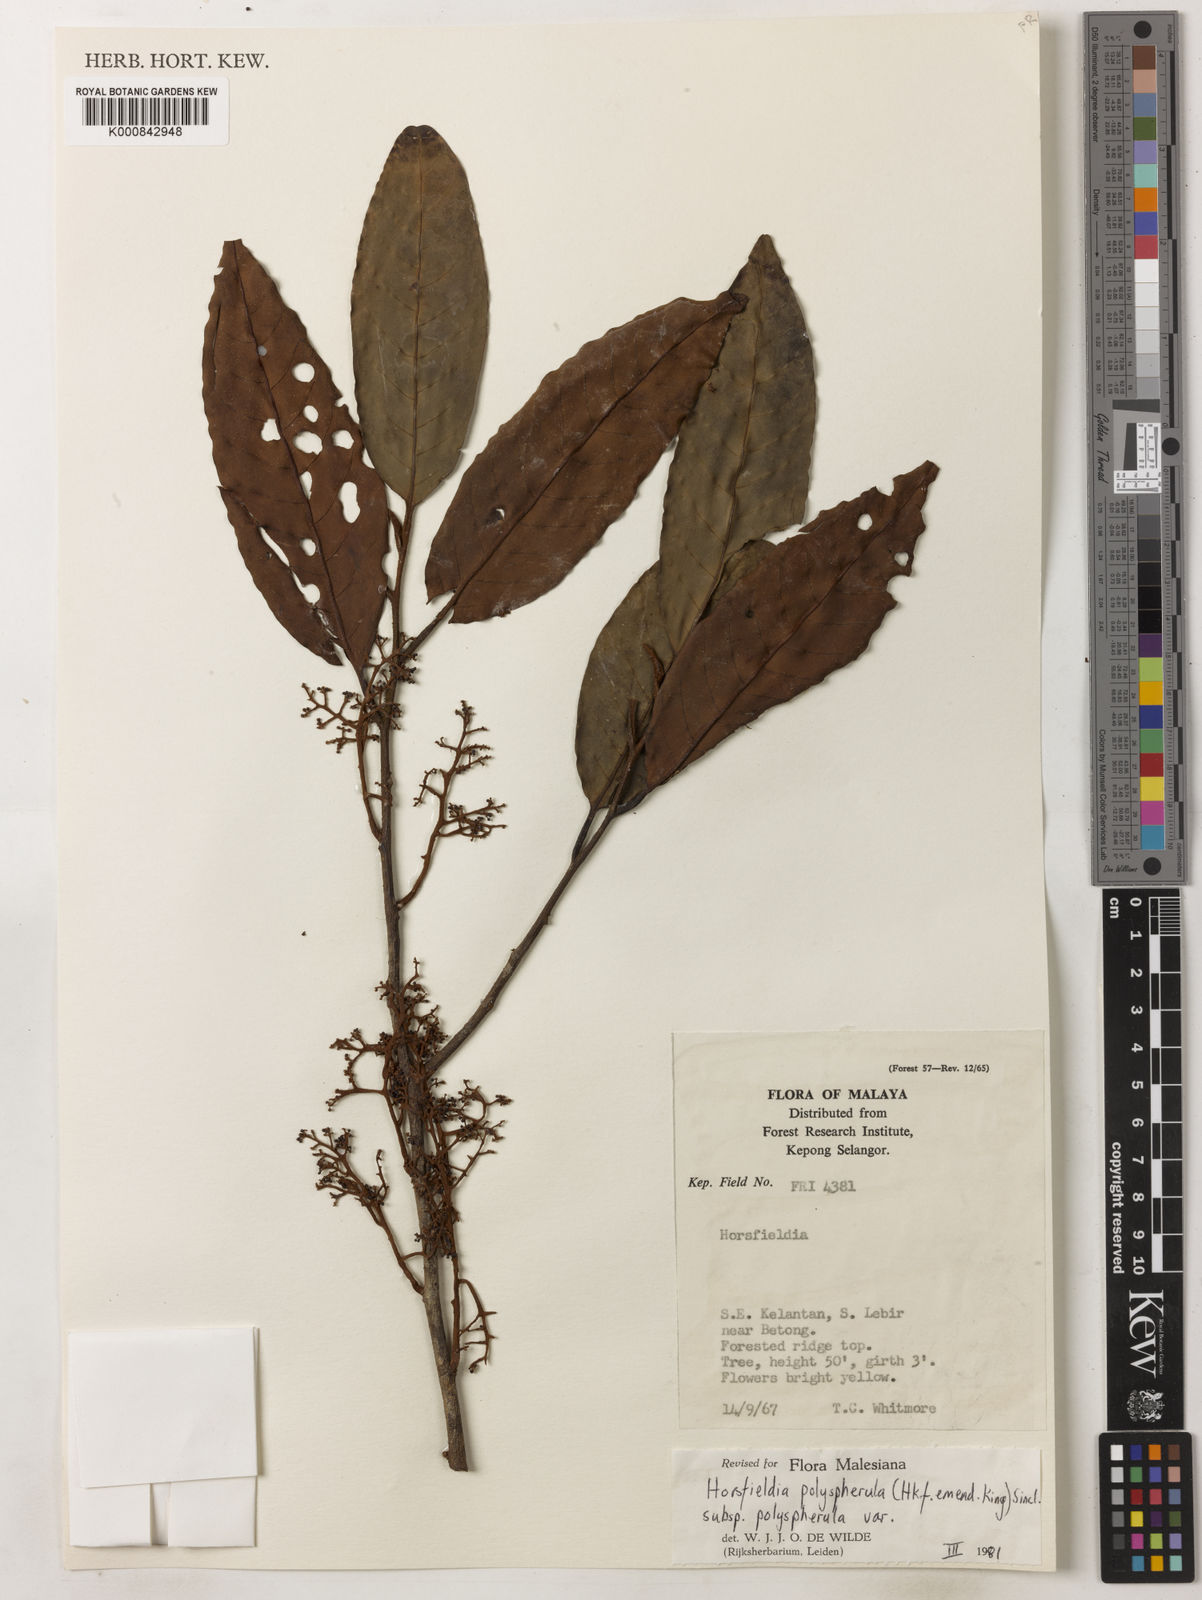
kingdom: Plantae
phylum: Tracheophyta
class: Magnoliopsida
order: Magnoliales
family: Myristicaceae
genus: Horsfieldia
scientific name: Horsfieldia
